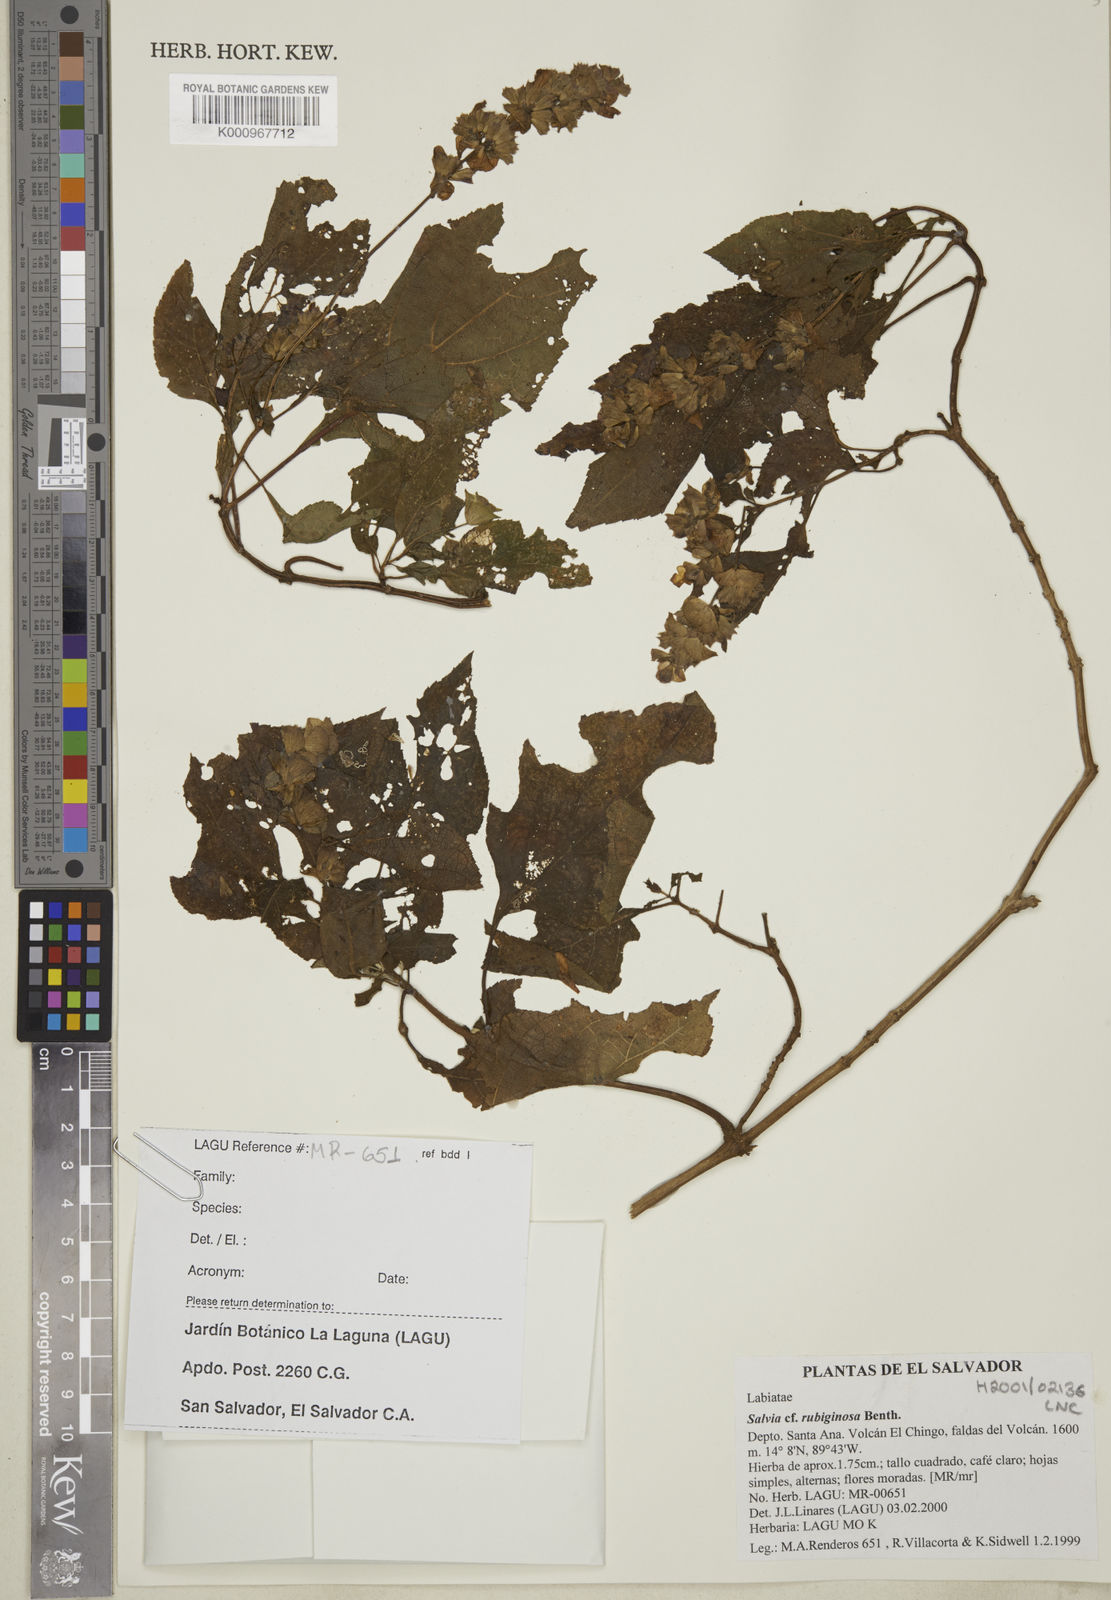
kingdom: Plantae
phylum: Tracheophyta
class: Magnoliopsida
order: Lamiales
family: Lamiaceae
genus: Salvia
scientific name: Salvia mocinoi
